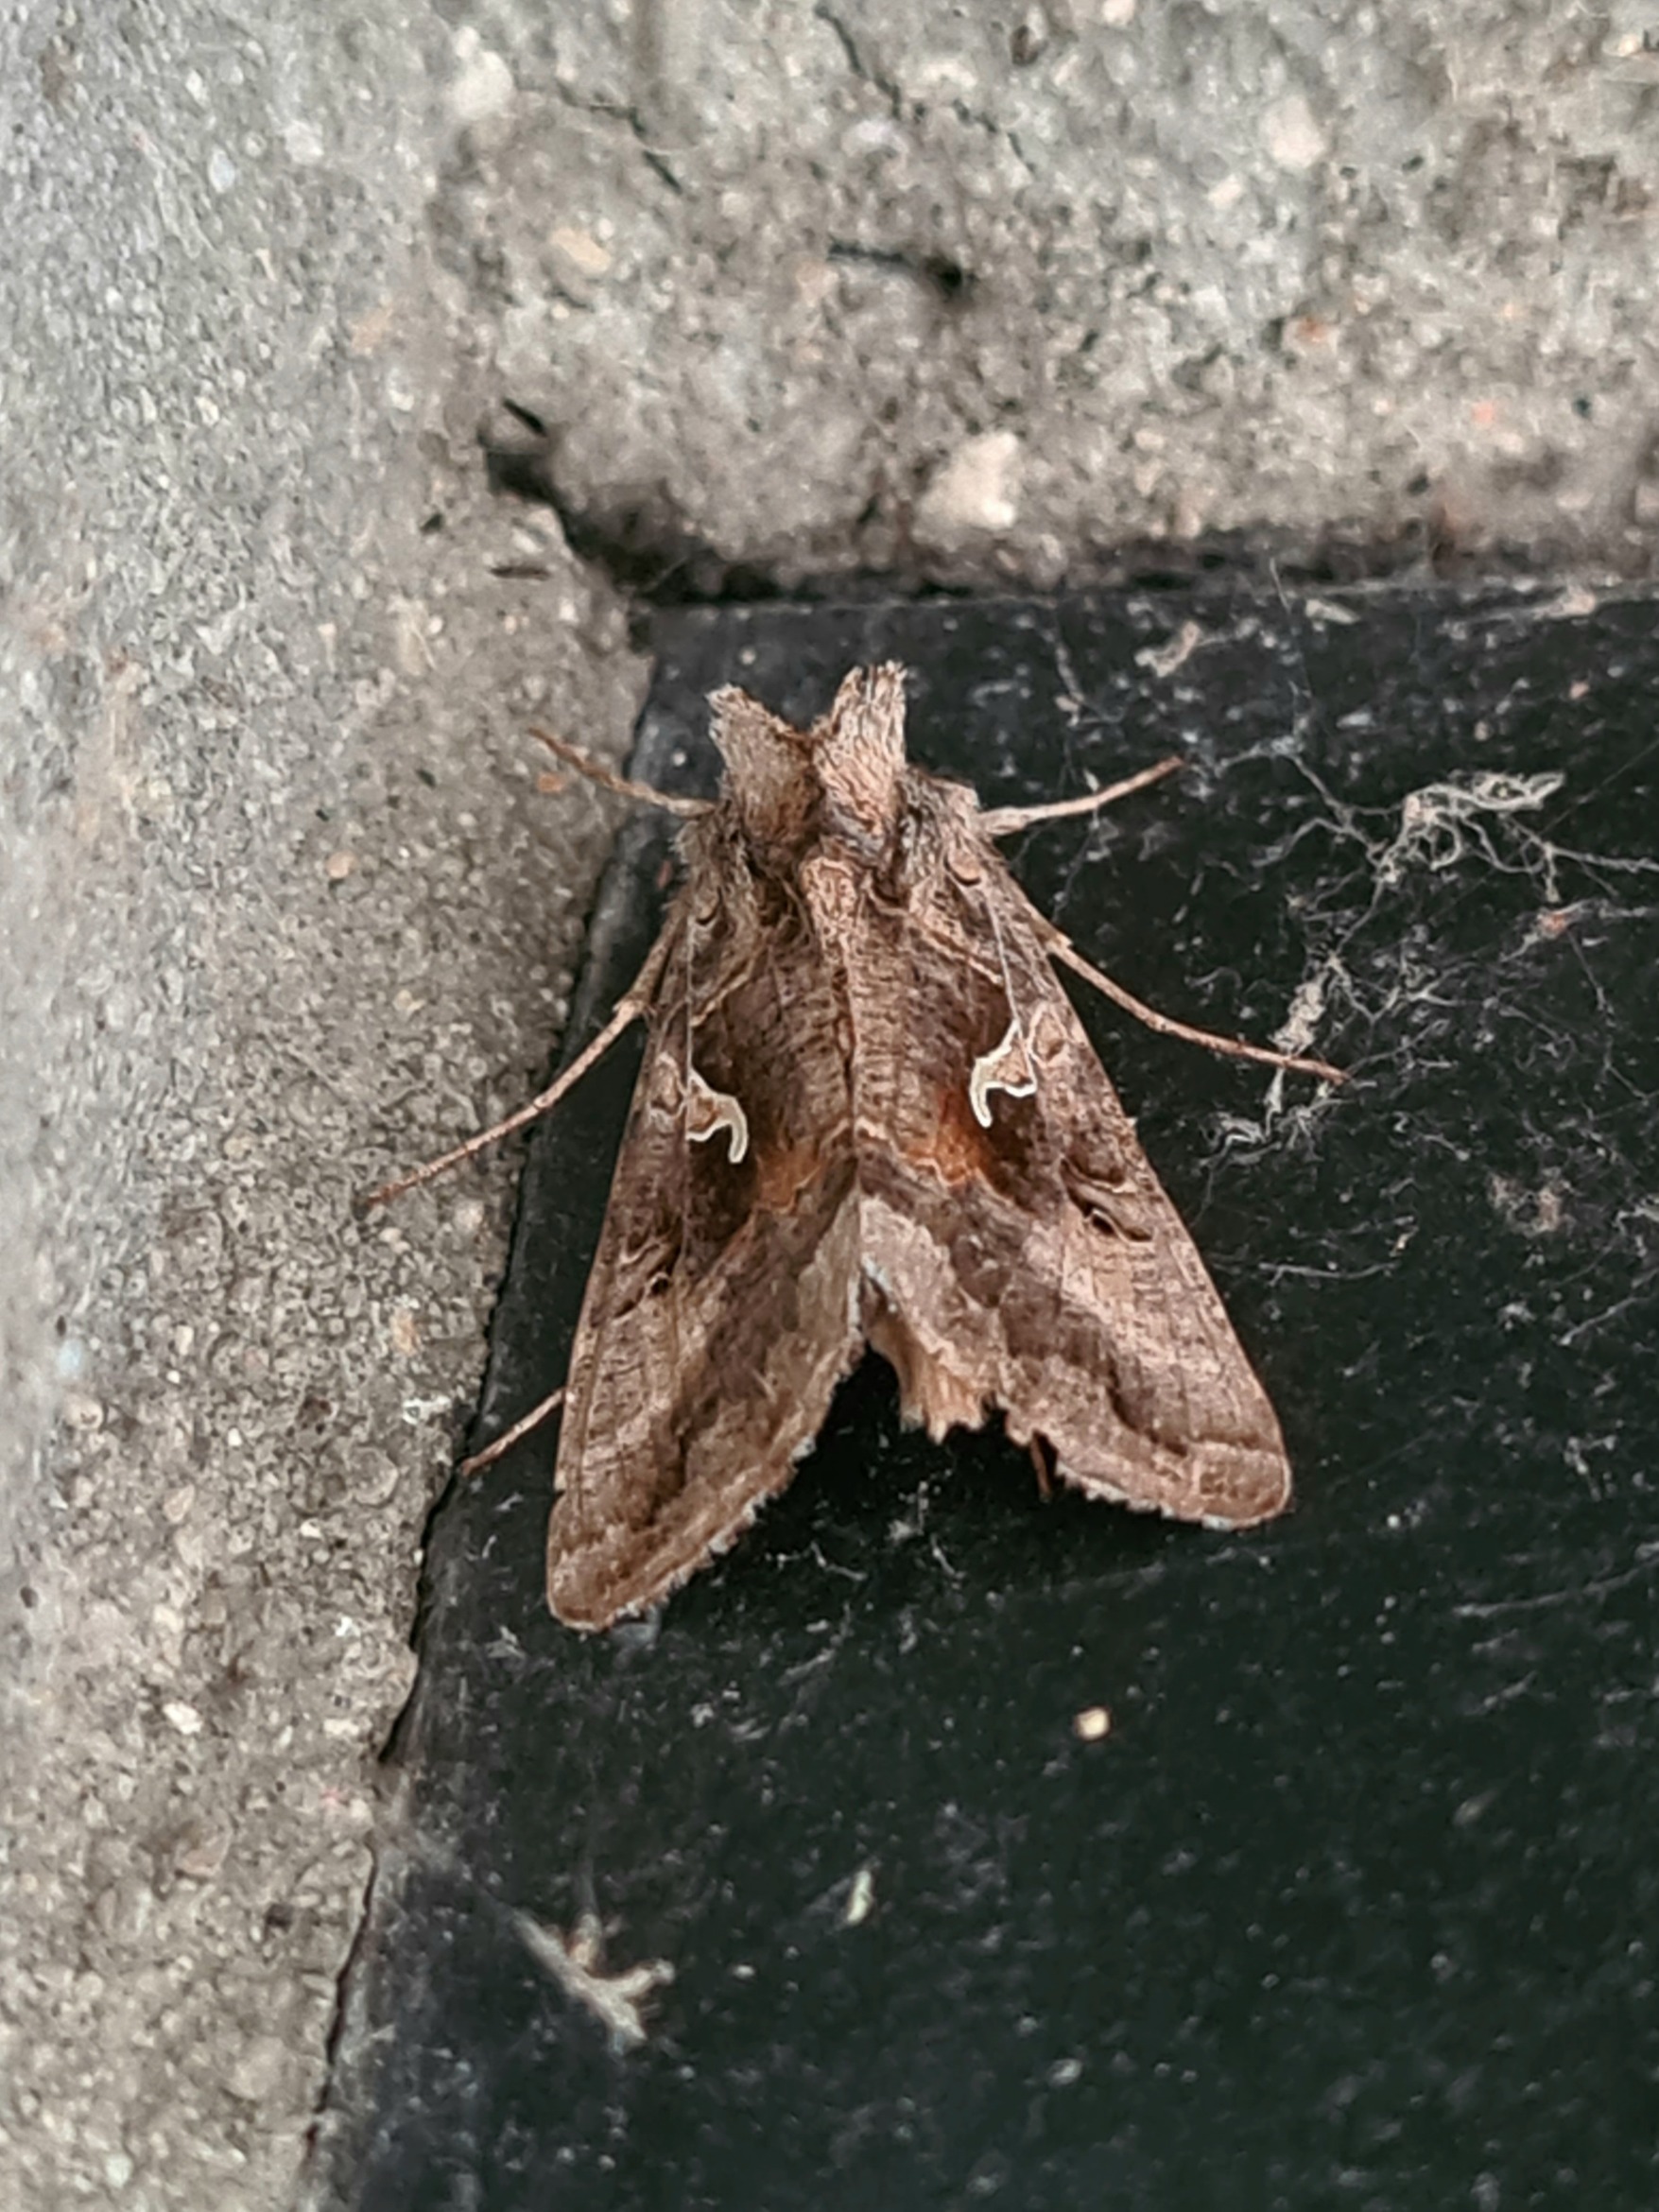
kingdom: Animalia
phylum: Arthropoda
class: Insecta
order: Lepidoptera
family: Noctuidae
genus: Autographa
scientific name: Autographa gamma
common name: Gammaugle
